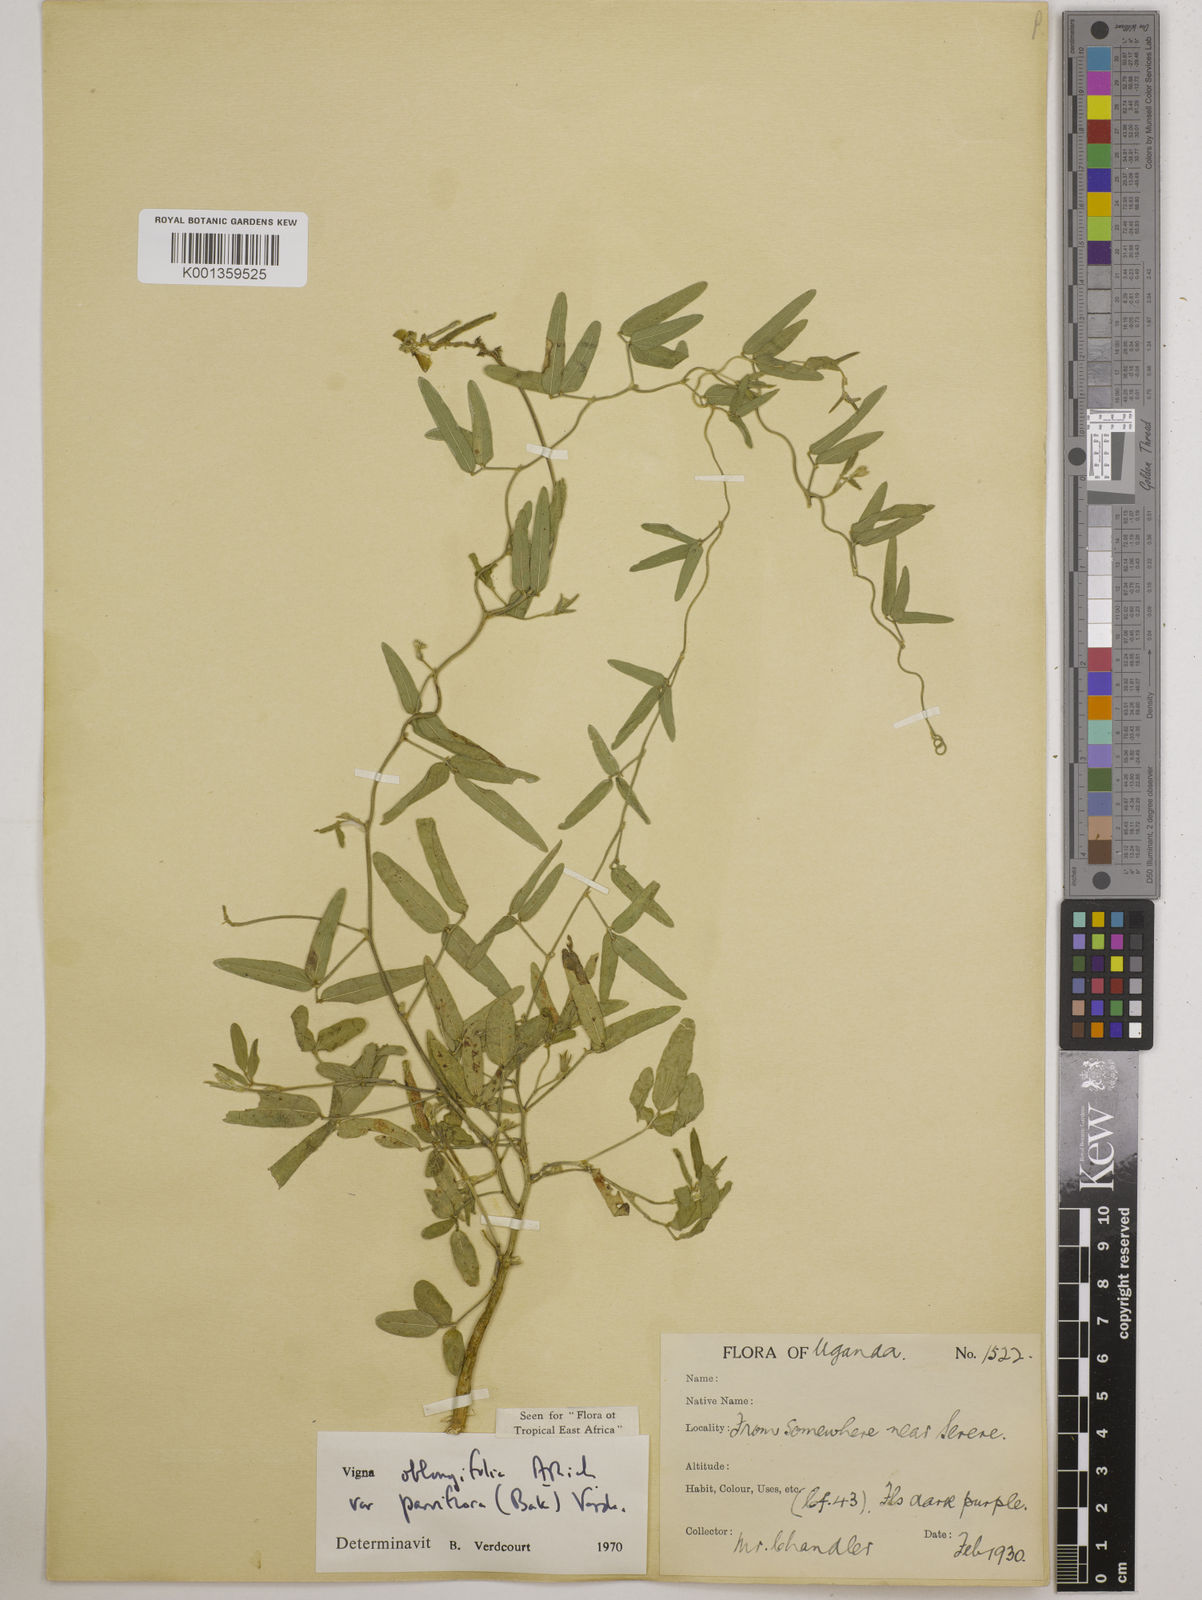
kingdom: Plantae
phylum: Tracheophyta
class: Magnoliopsida
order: Fabales
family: Fabaceae
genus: Vigna
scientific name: Vigna
